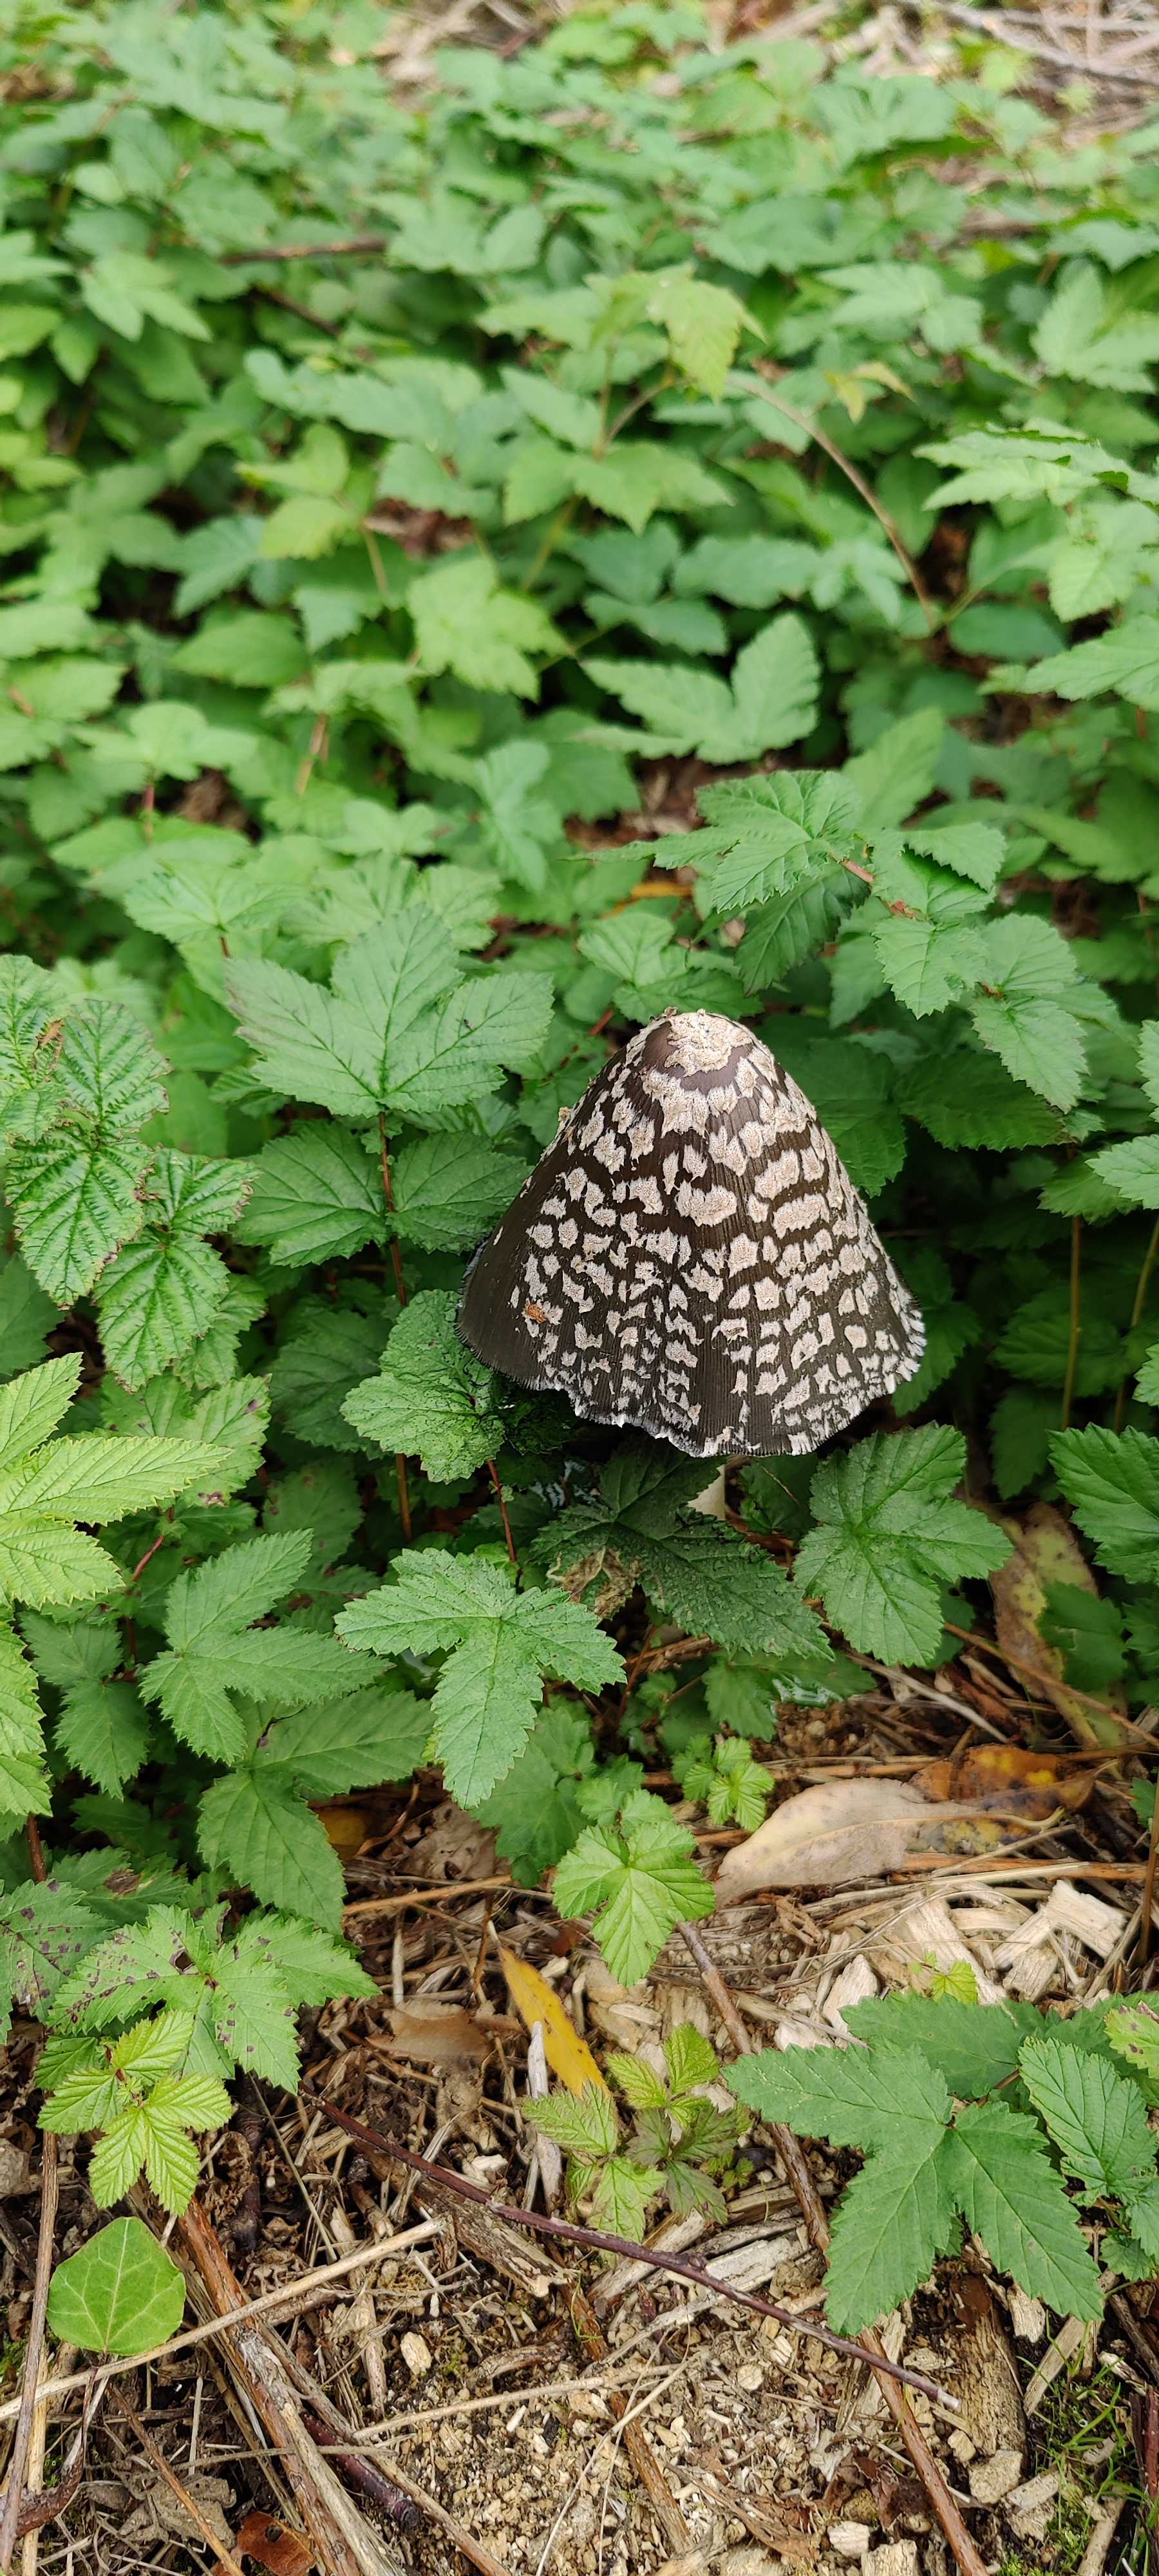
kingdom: Fungi
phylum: Basidiomycota
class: Agaricomycetes
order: Agaricales
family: Psathyrellaceae
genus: Coprinopsis
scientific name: Coprinopsis picacea
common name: skade-blækhat
